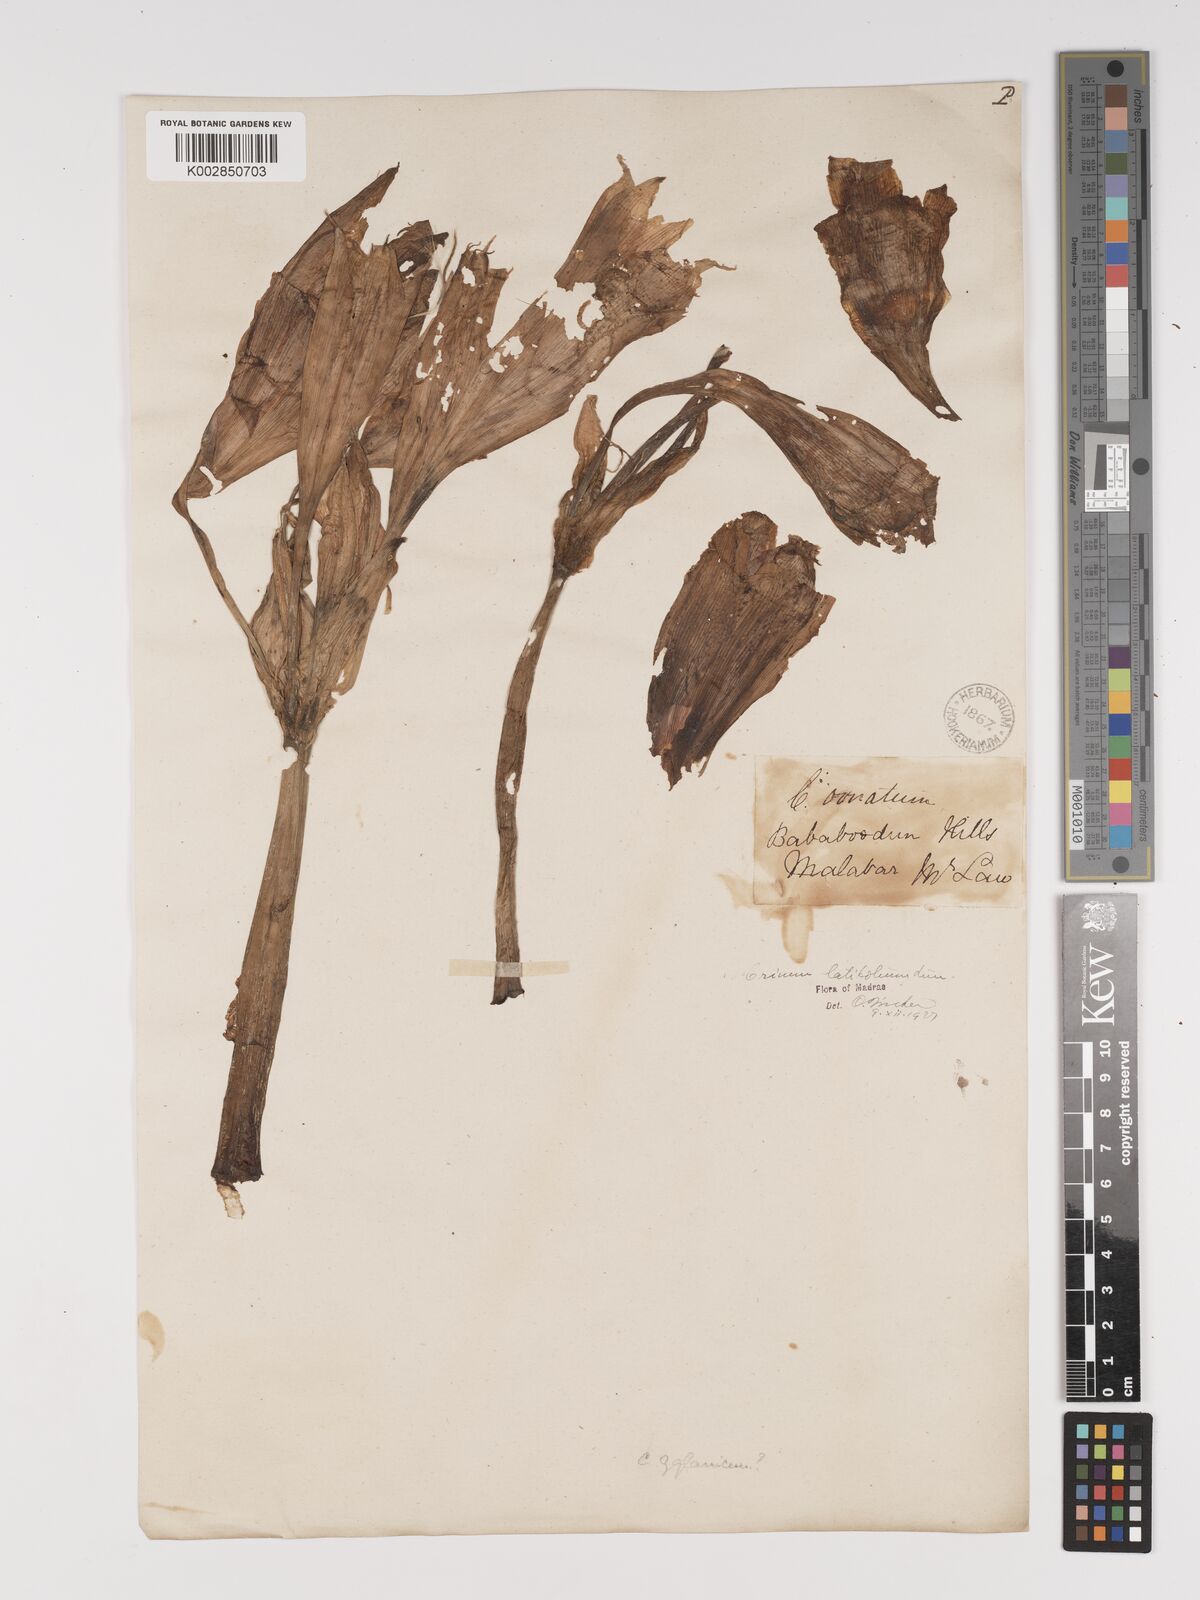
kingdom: Plantae
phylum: Tracheophyta
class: Liliopsida
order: Asparagales
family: Amaryllidaceae
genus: Crinum
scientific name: Crinum latifolium
